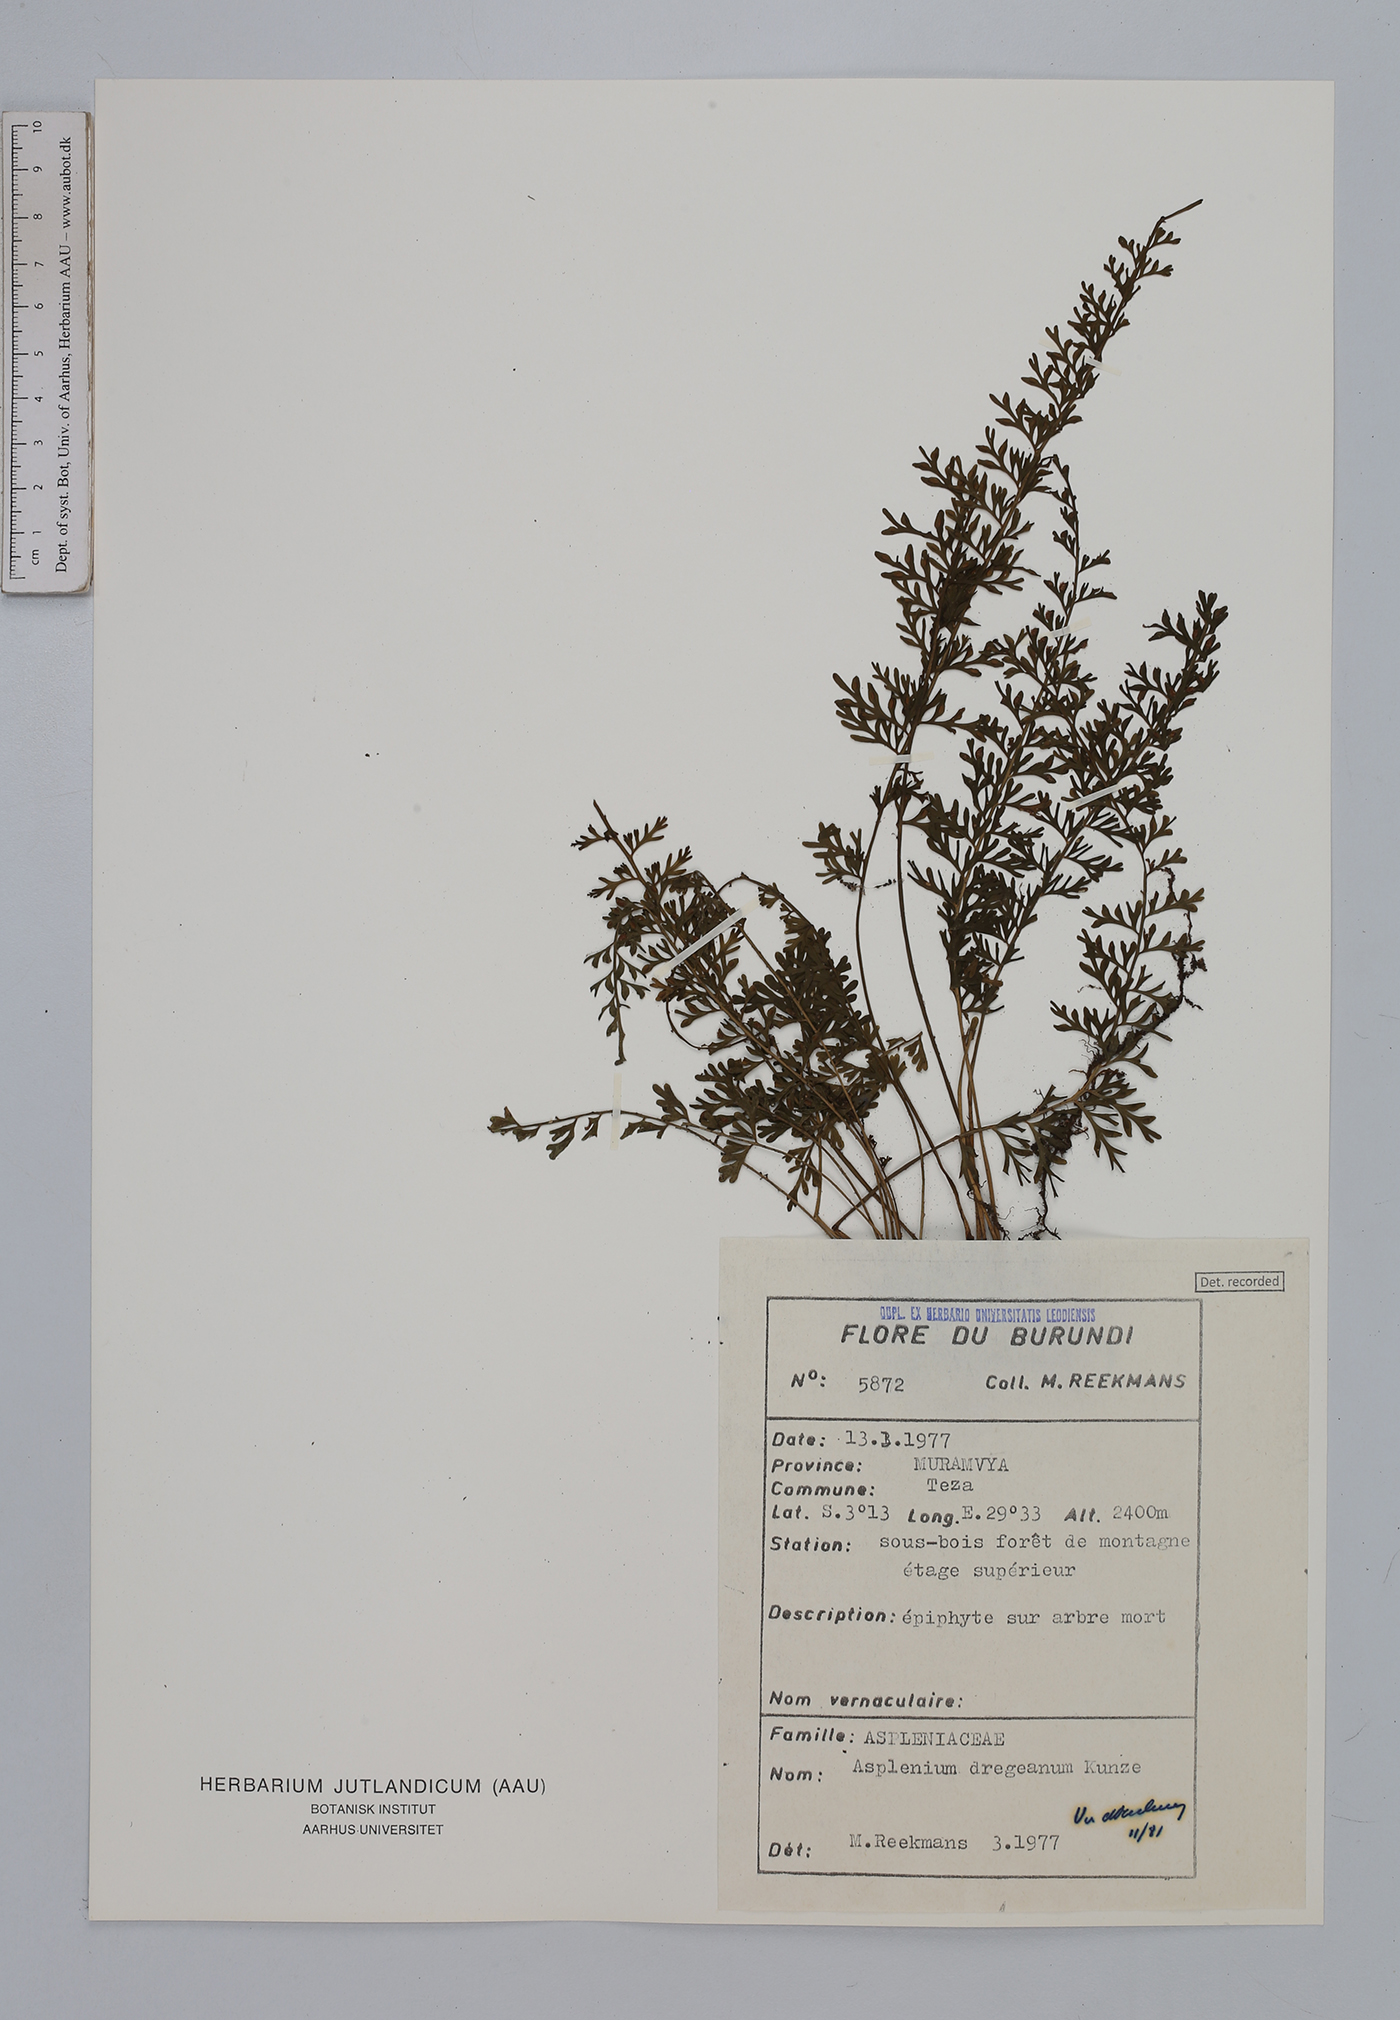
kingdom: Plantae
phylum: Tracheophyta
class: Polypodiopsida
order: Polypodiales
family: Aspleniaceae
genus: Asplenium
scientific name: Asplenium dregeanum
